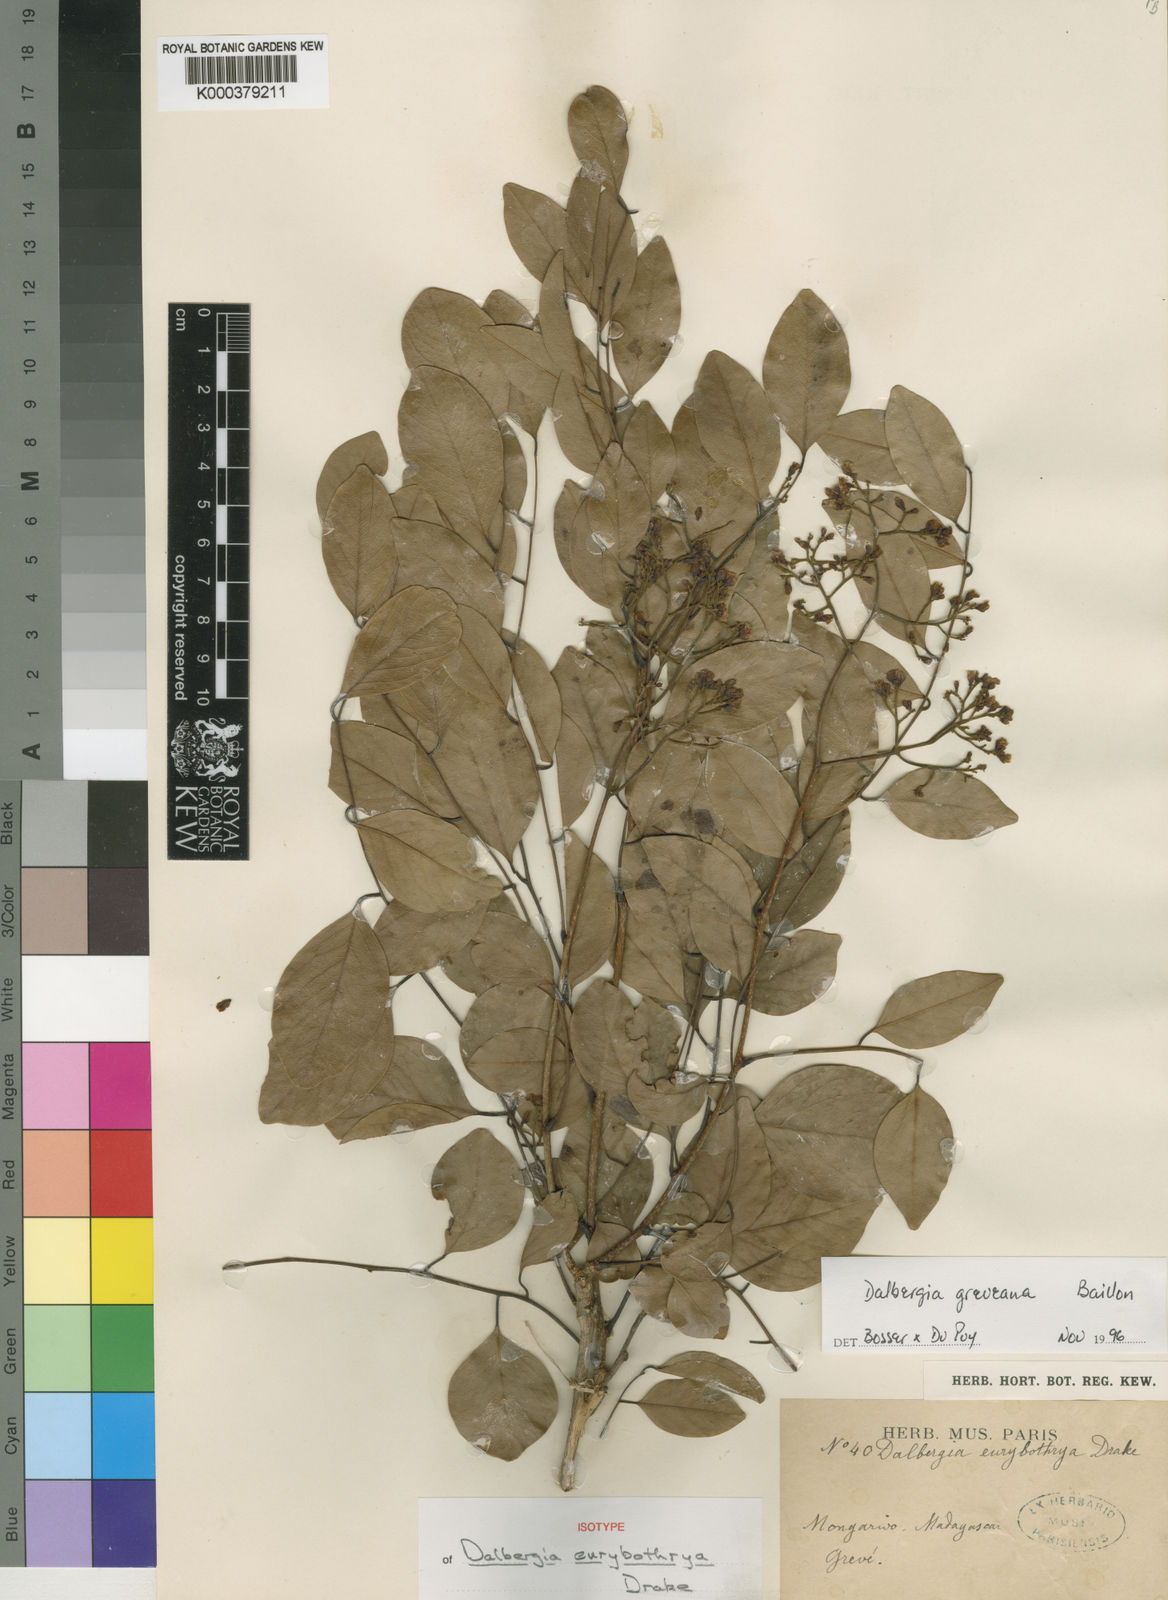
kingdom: Plantae
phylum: Tracheophyta
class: Magnoliopsida
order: Fabales
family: Fabaceae
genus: Dalbergia
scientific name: Dalbergia greveana
